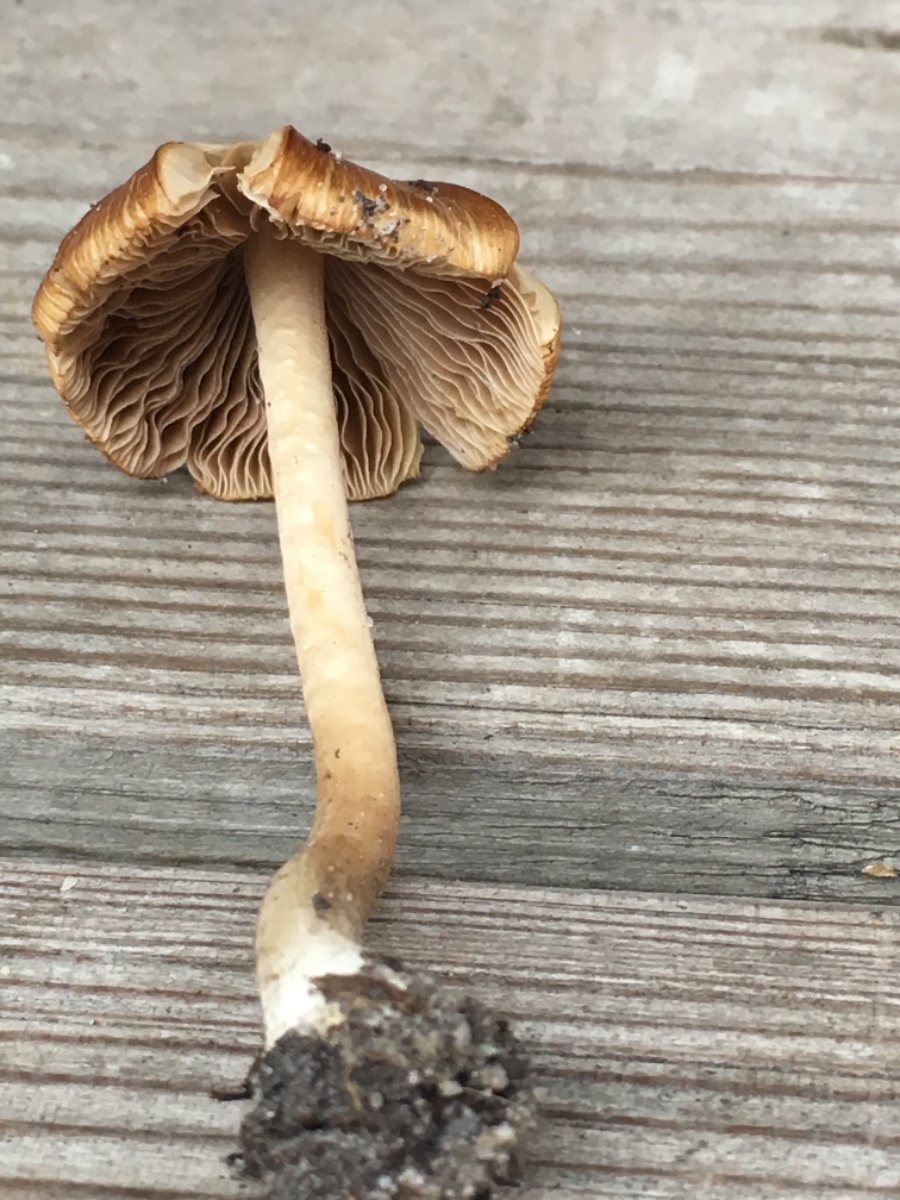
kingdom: Fungi
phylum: Basidiomycota
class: Agaricomycetes
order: Agaricales
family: Inocybaceae
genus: Inocybe
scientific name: Inocybe
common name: trævlhat
